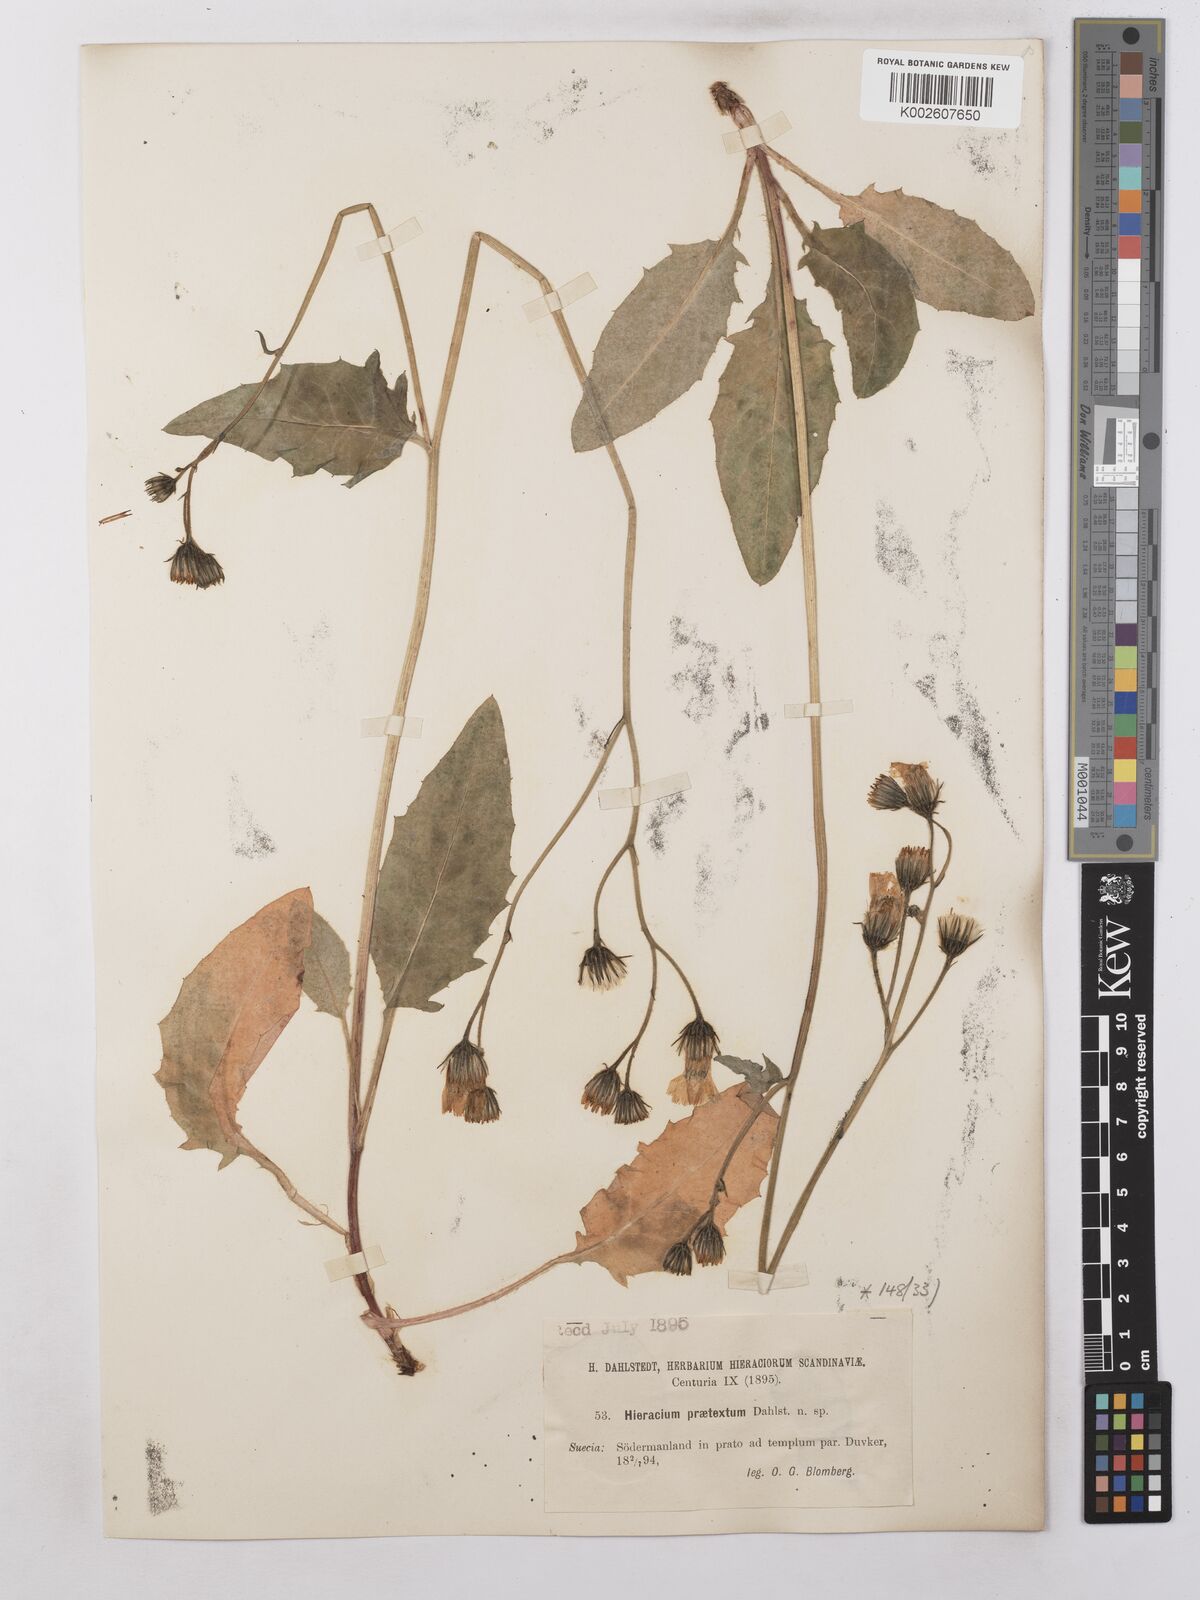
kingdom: Plantae
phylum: Tracheophyta
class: Magnoliopsida
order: Asterales
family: Asteraceae
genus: Hieracium
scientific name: Hieracium subramosum
